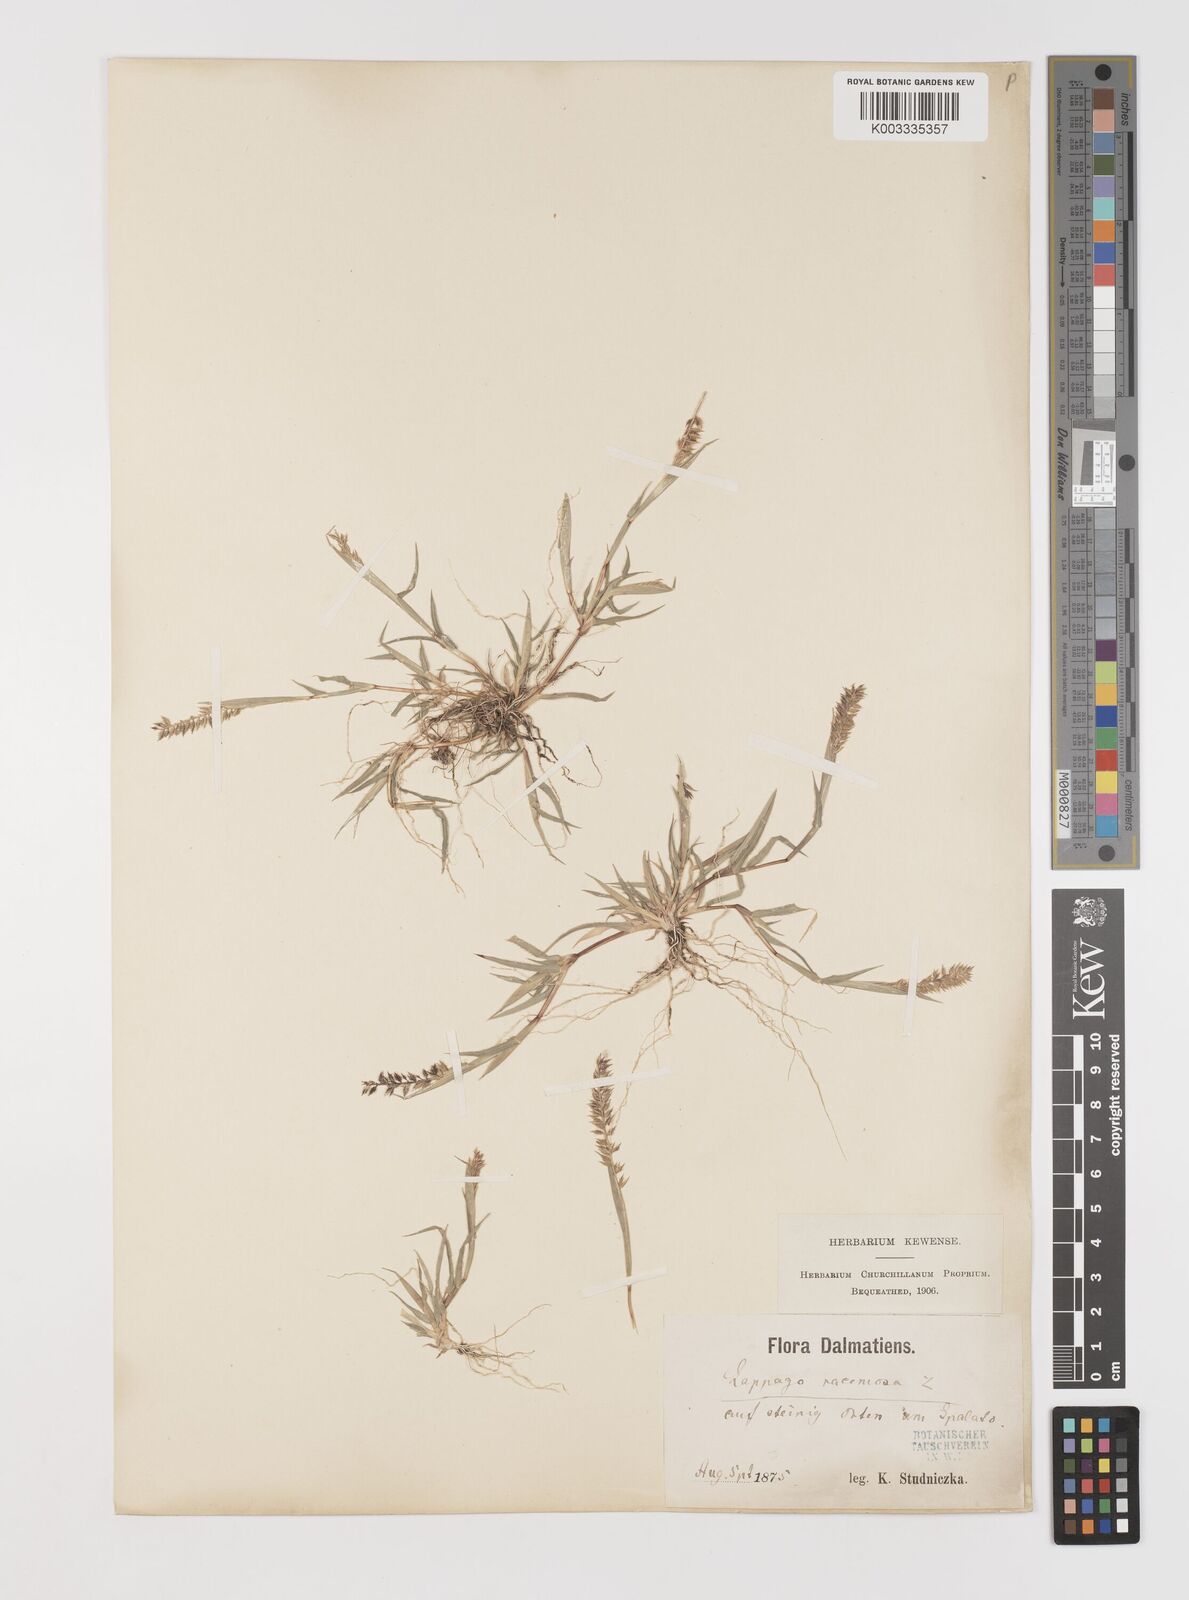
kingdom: Plantae
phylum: Tracheophyta
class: Liliopsida
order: Poales
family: Poaceae
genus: Tragus
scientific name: Tragus racemosus
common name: European bur-grass
